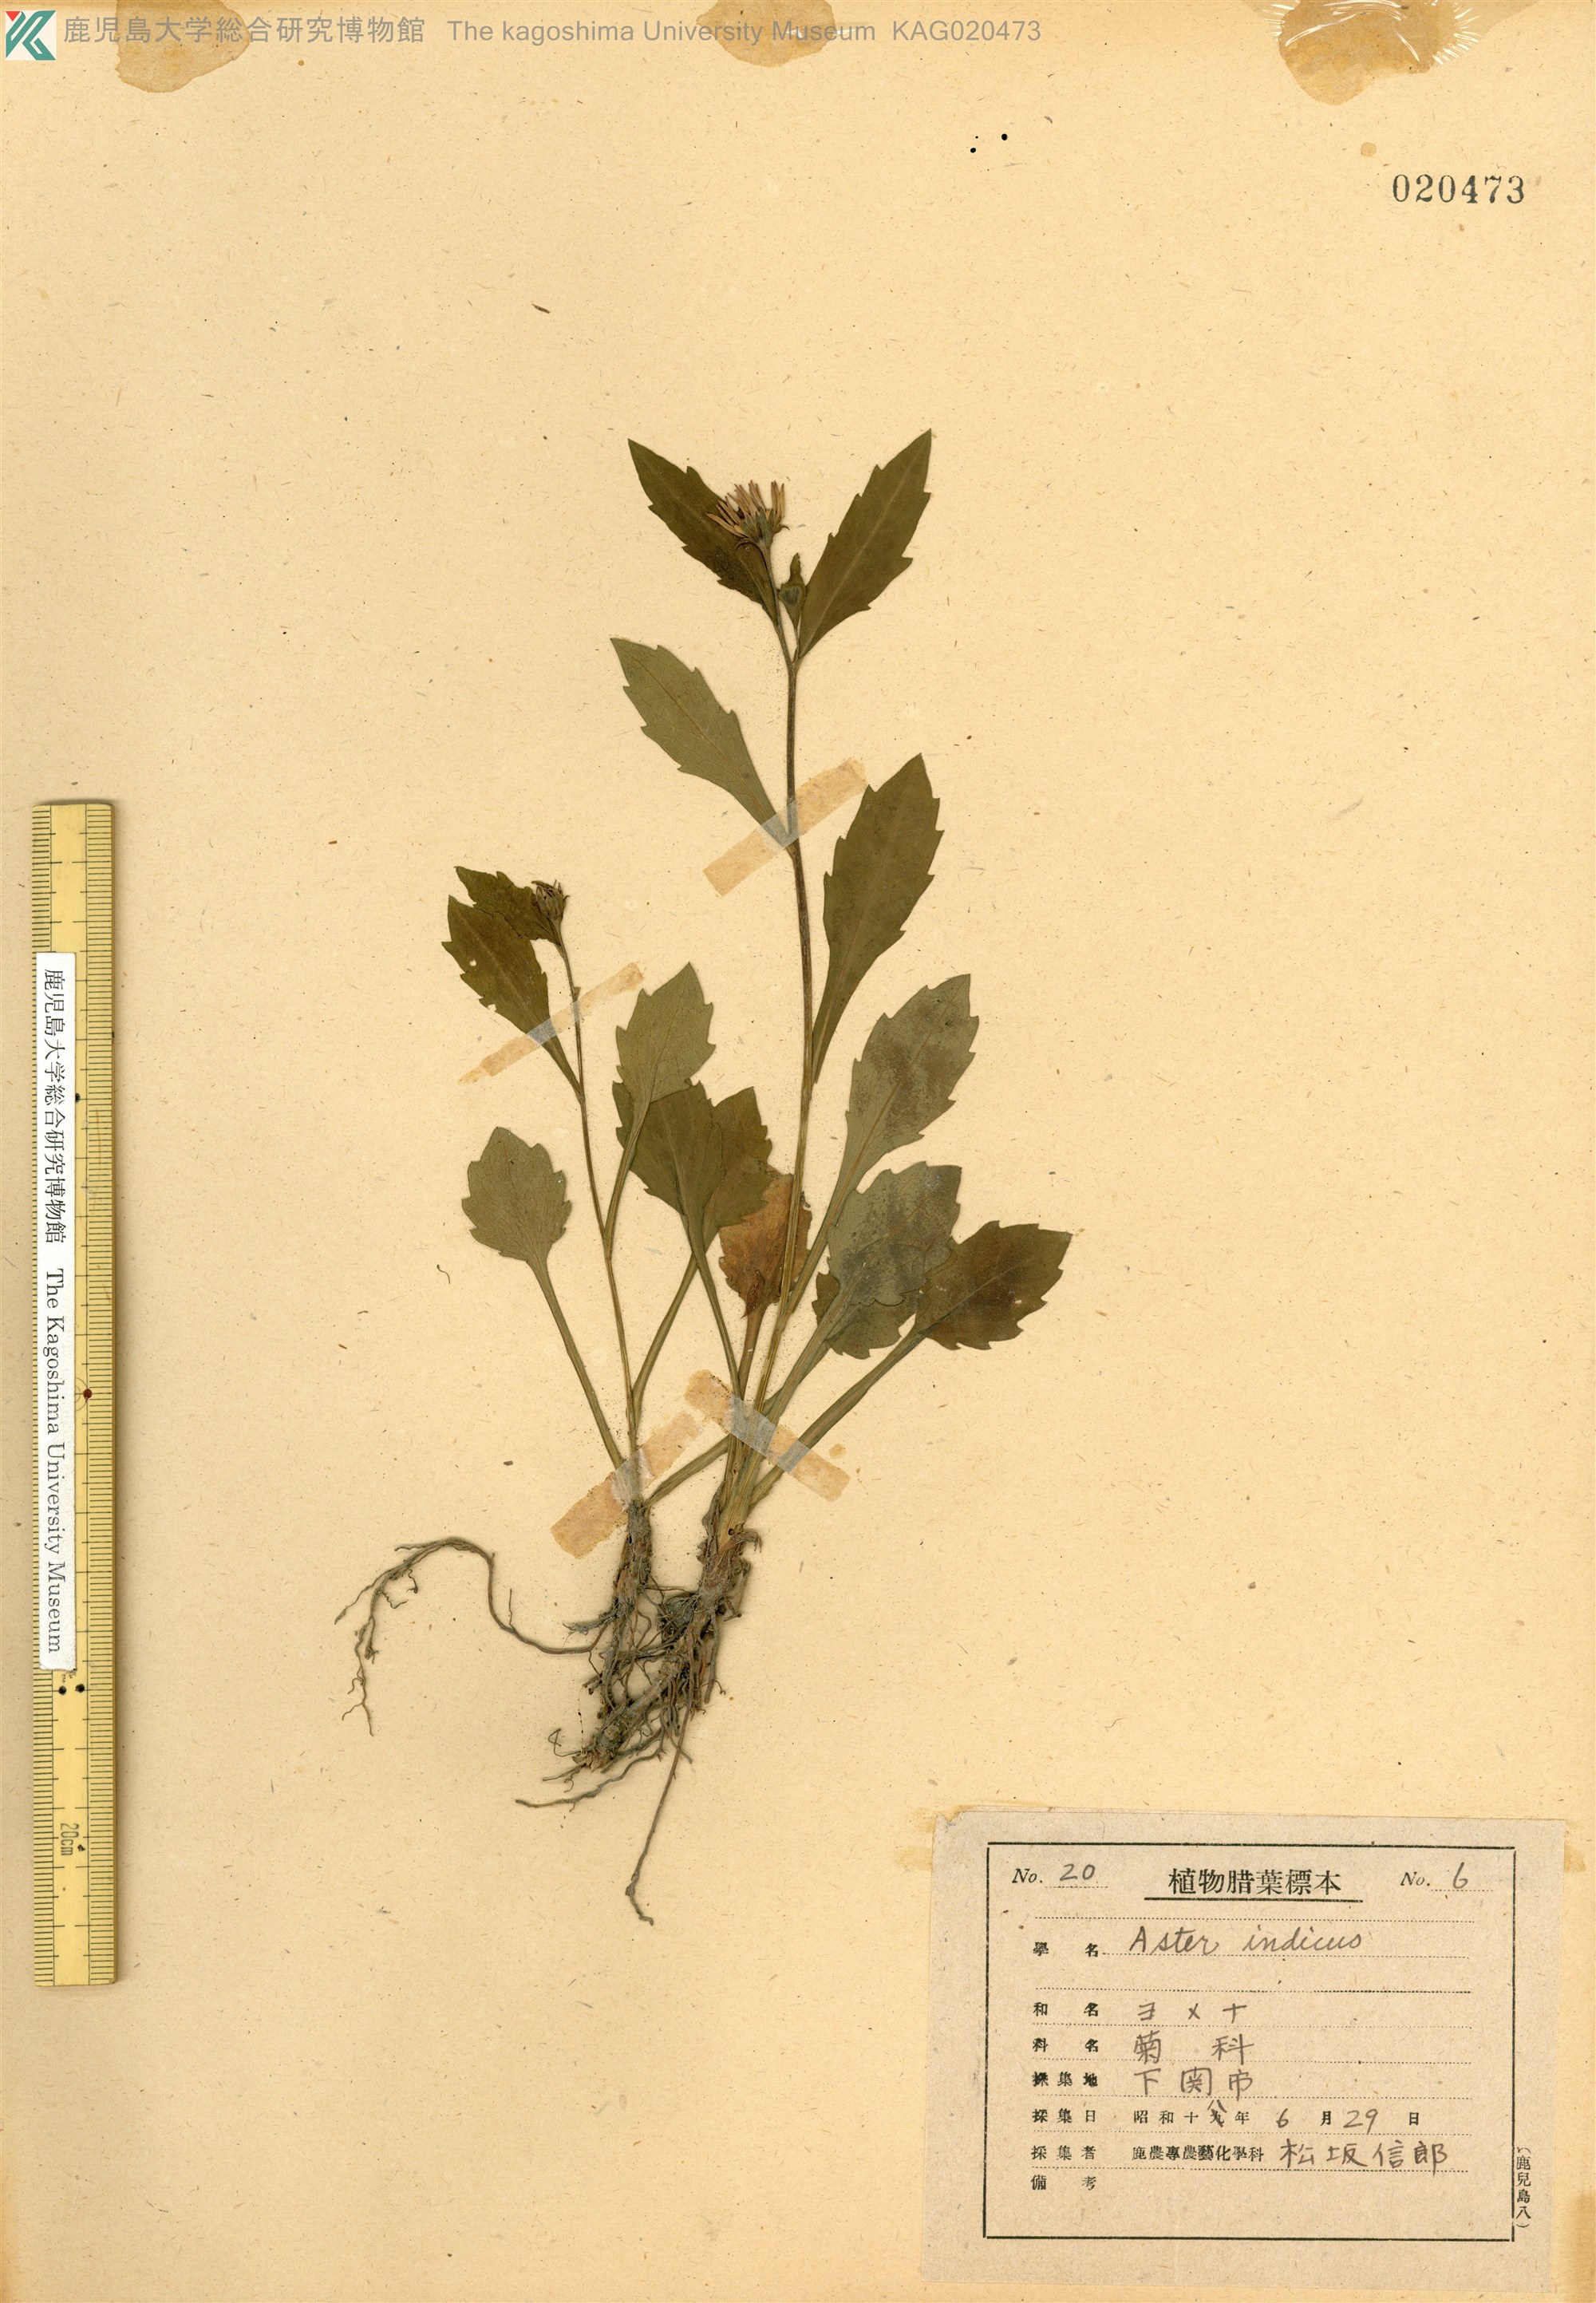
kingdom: Plantae
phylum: Tracheophyta
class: Magnoliopsida
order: Asterales
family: Asteraceae
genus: Miyamayomena
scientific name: Miyamayomena savatieri
